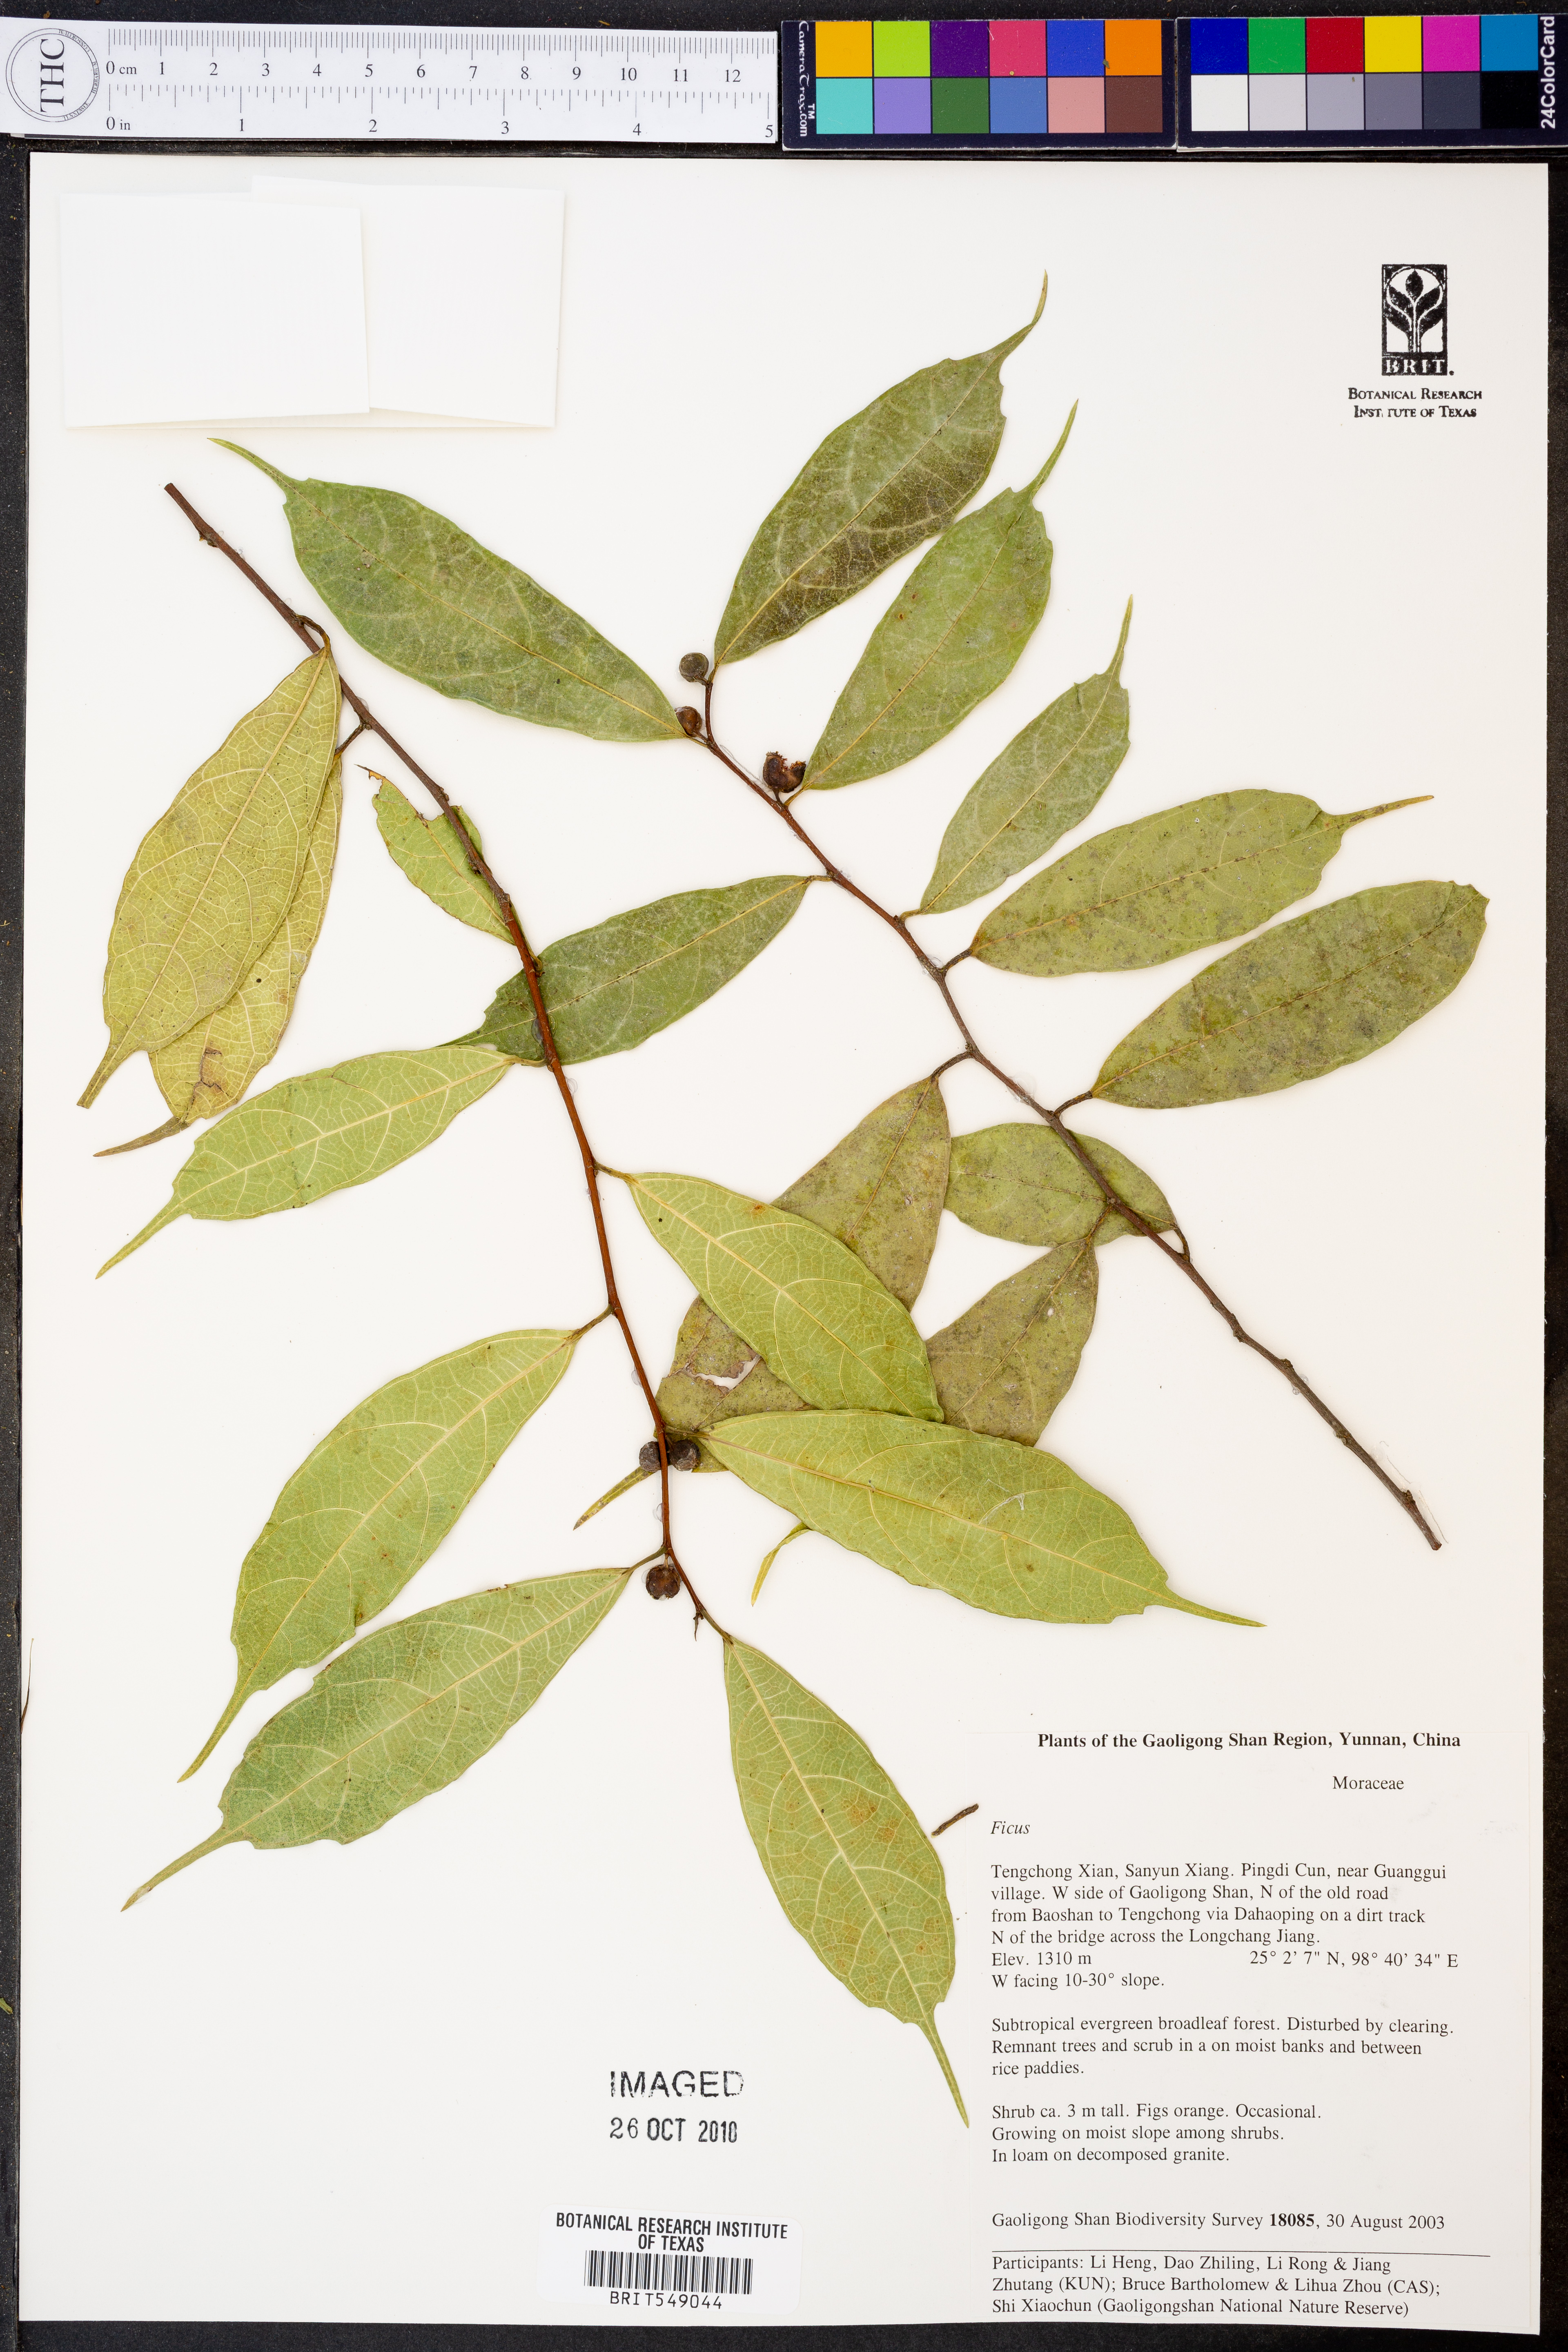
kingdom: Plantae
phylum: Tracheophyta
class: Magnoliopsida
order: Rosales
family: Moraceae
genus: Ficus
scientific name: Ficus
